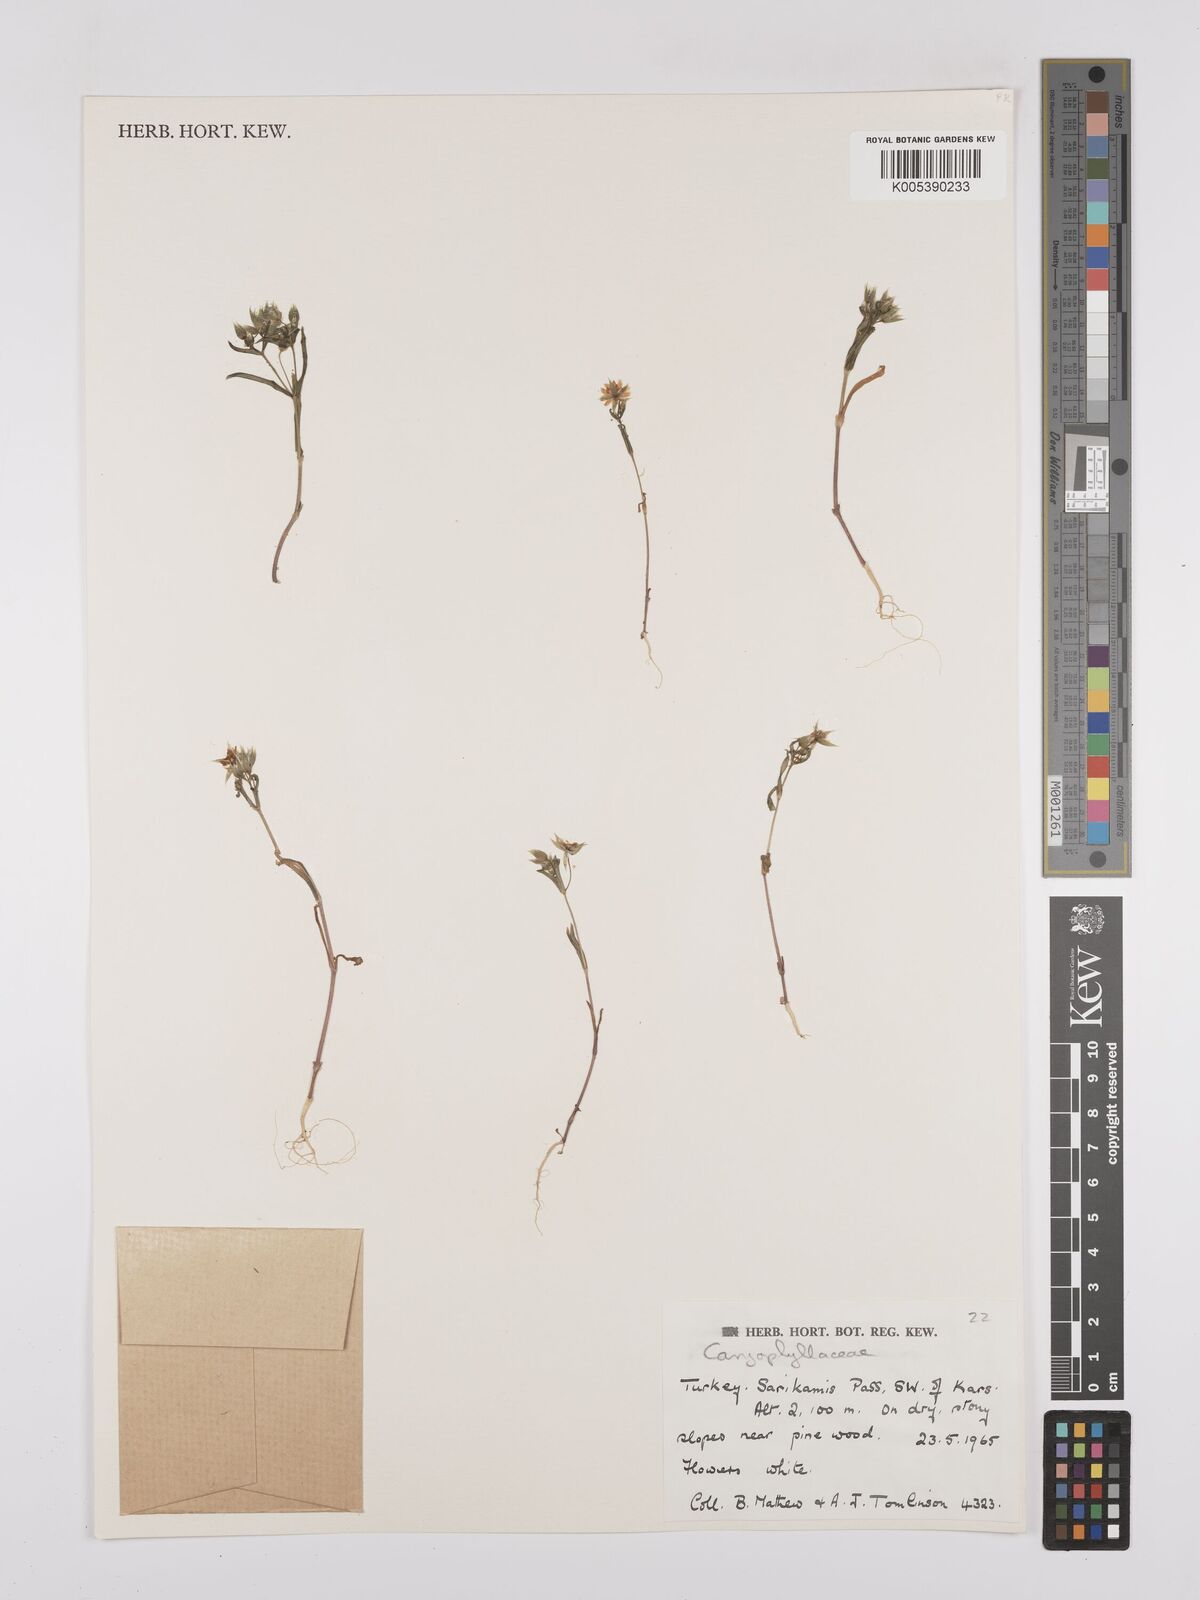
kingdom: Plantae
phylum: Tracheophyta
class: Magnoliopsida
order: Caryophyllales
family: Caryophyllaceae
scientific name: Caryophyllaceae
